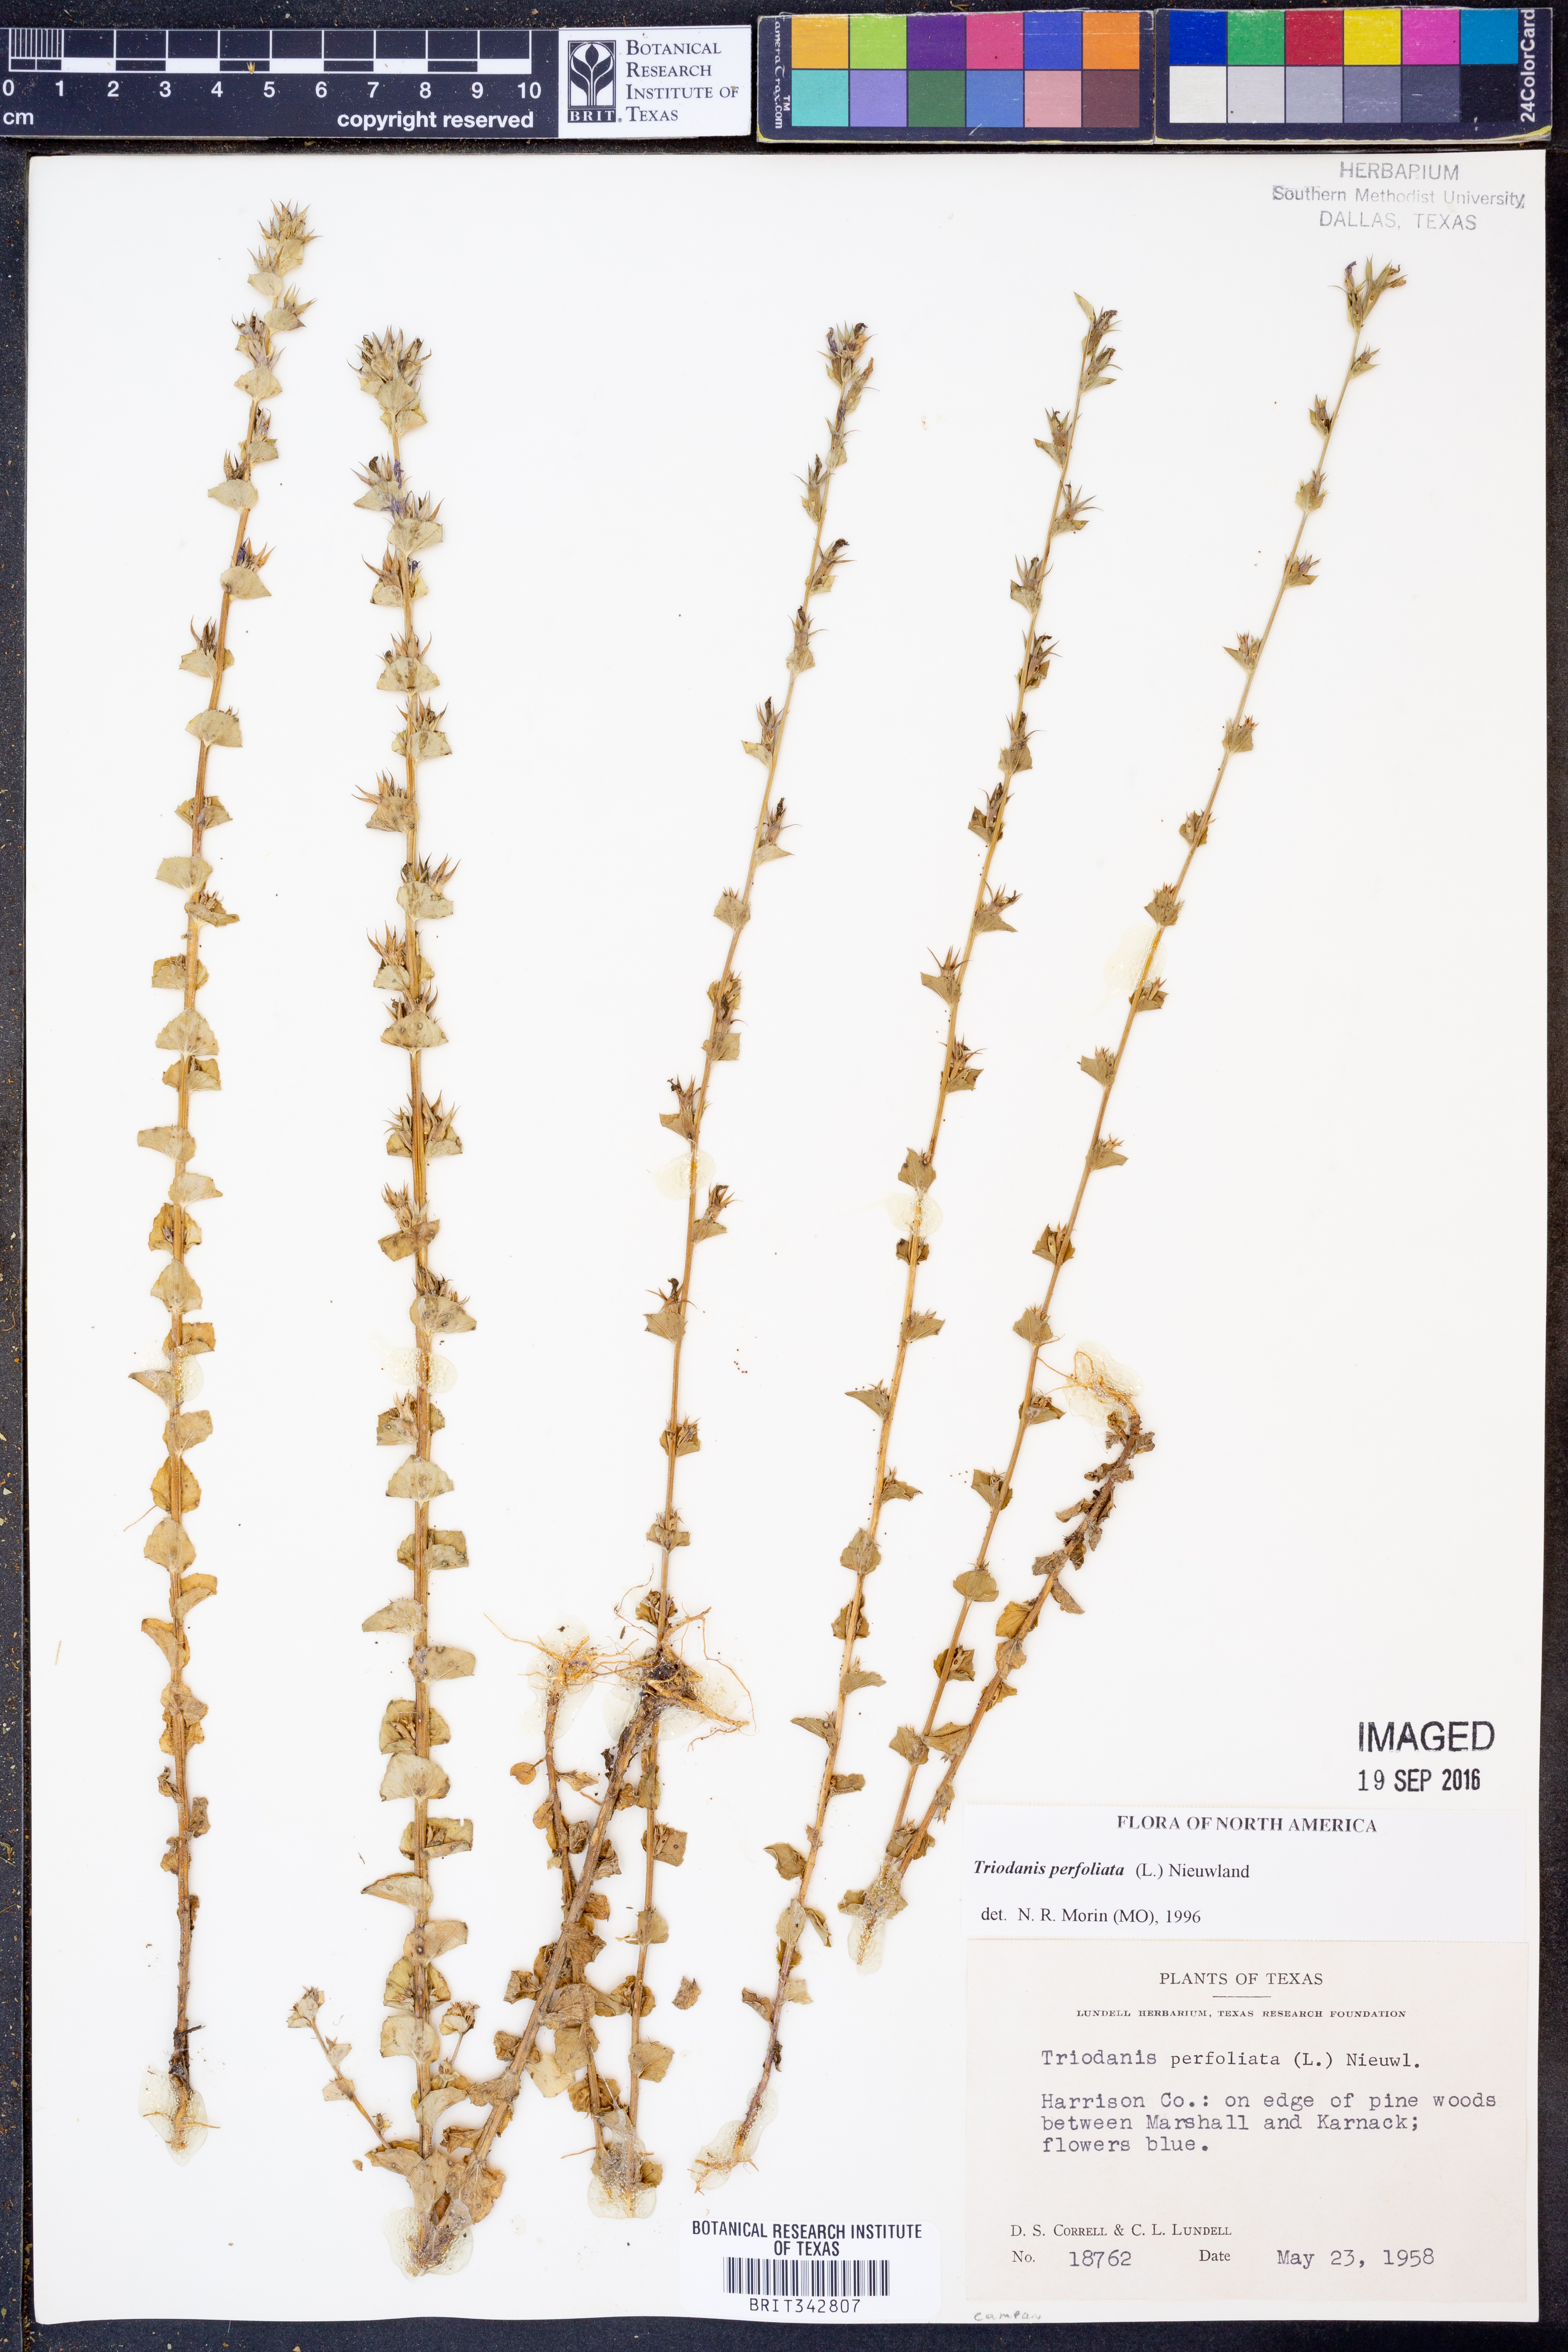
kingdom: Plantae
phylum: Tracheophyta
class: Magnoliopsida
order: Asterales
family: Campanulaceae
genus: Triodanis
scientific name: Triodanis perfoliata
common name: Clasping venus' looking-glass
